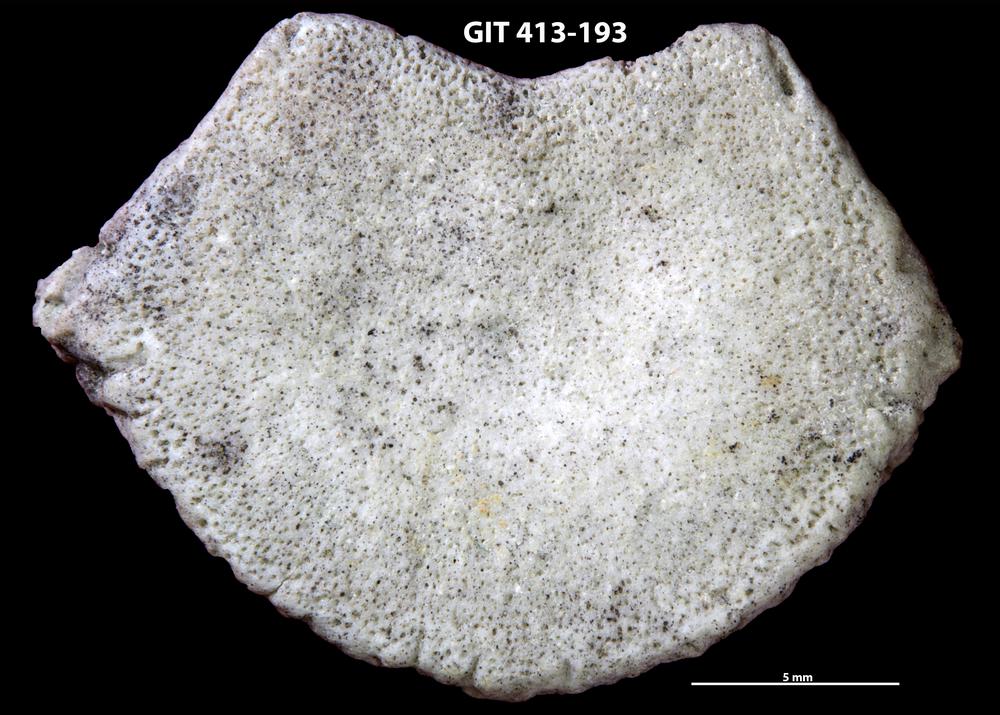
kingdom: Animalia
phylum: Porifera
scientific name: Porifera
